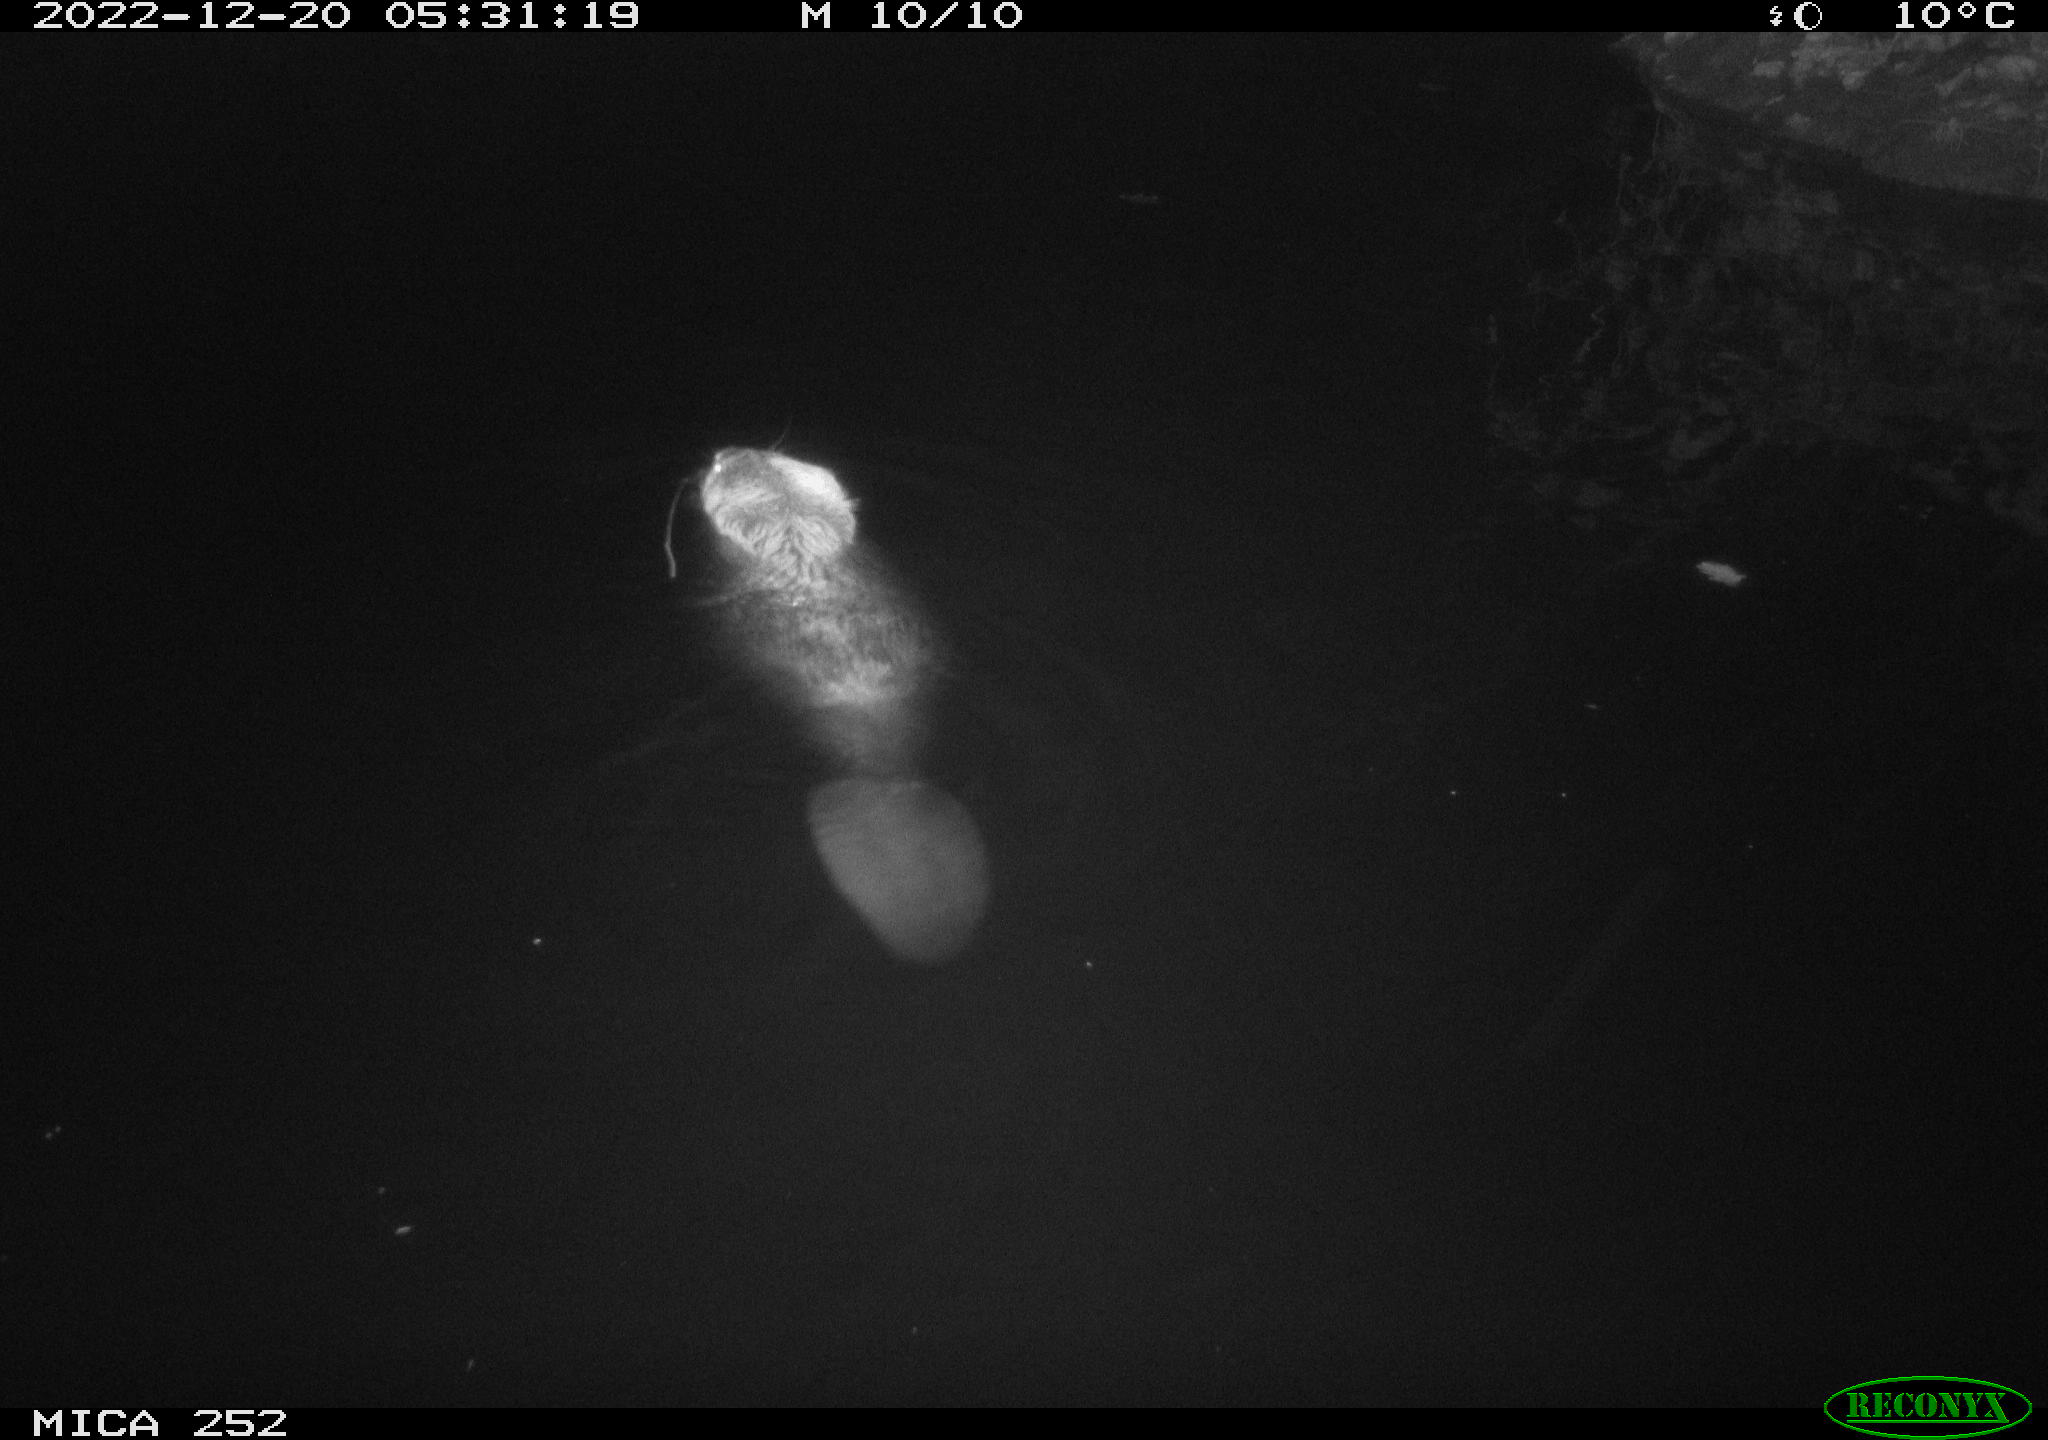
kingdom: Animalia
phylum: Chordata
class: Mammalia
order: Rodentia
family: Castoridae
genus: Castor
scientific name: Castor fiber
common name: Eurasian beaver
